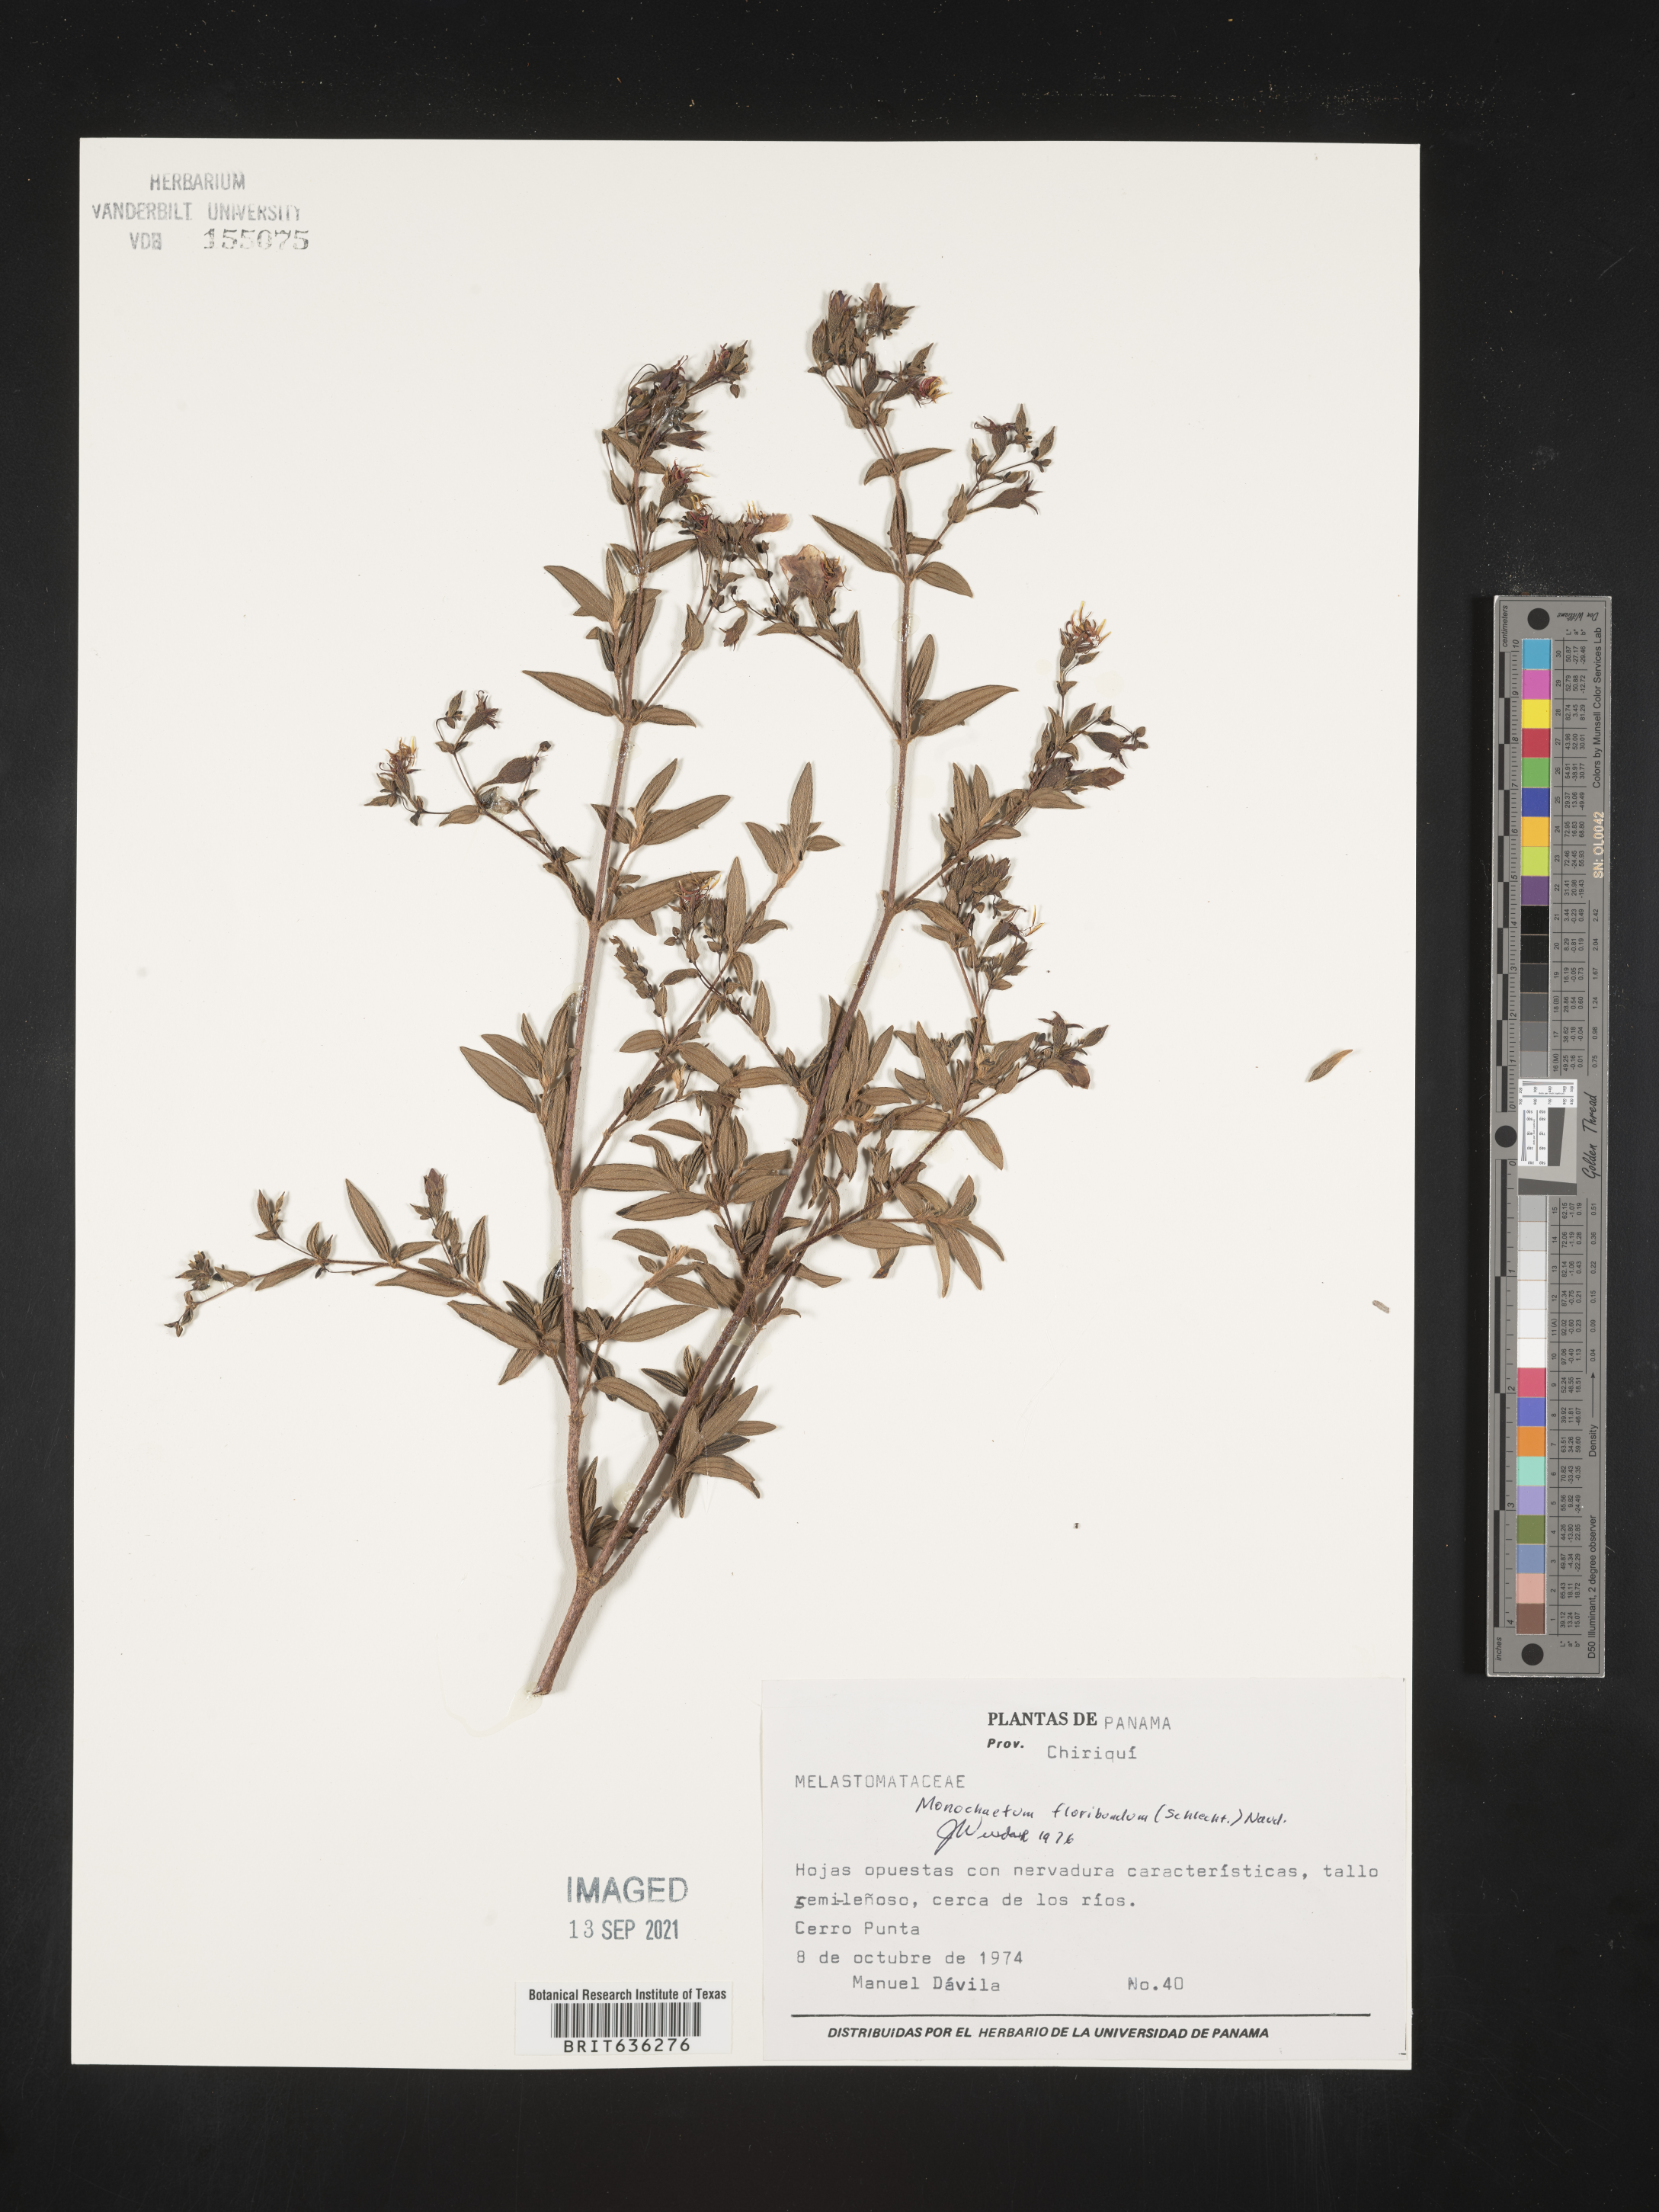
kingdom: Plantae
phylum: Tracheophyta
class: Magnoliopsida
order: Myrtales
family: Melastomataceae
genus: Monochaetum
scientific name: Monochaetum
